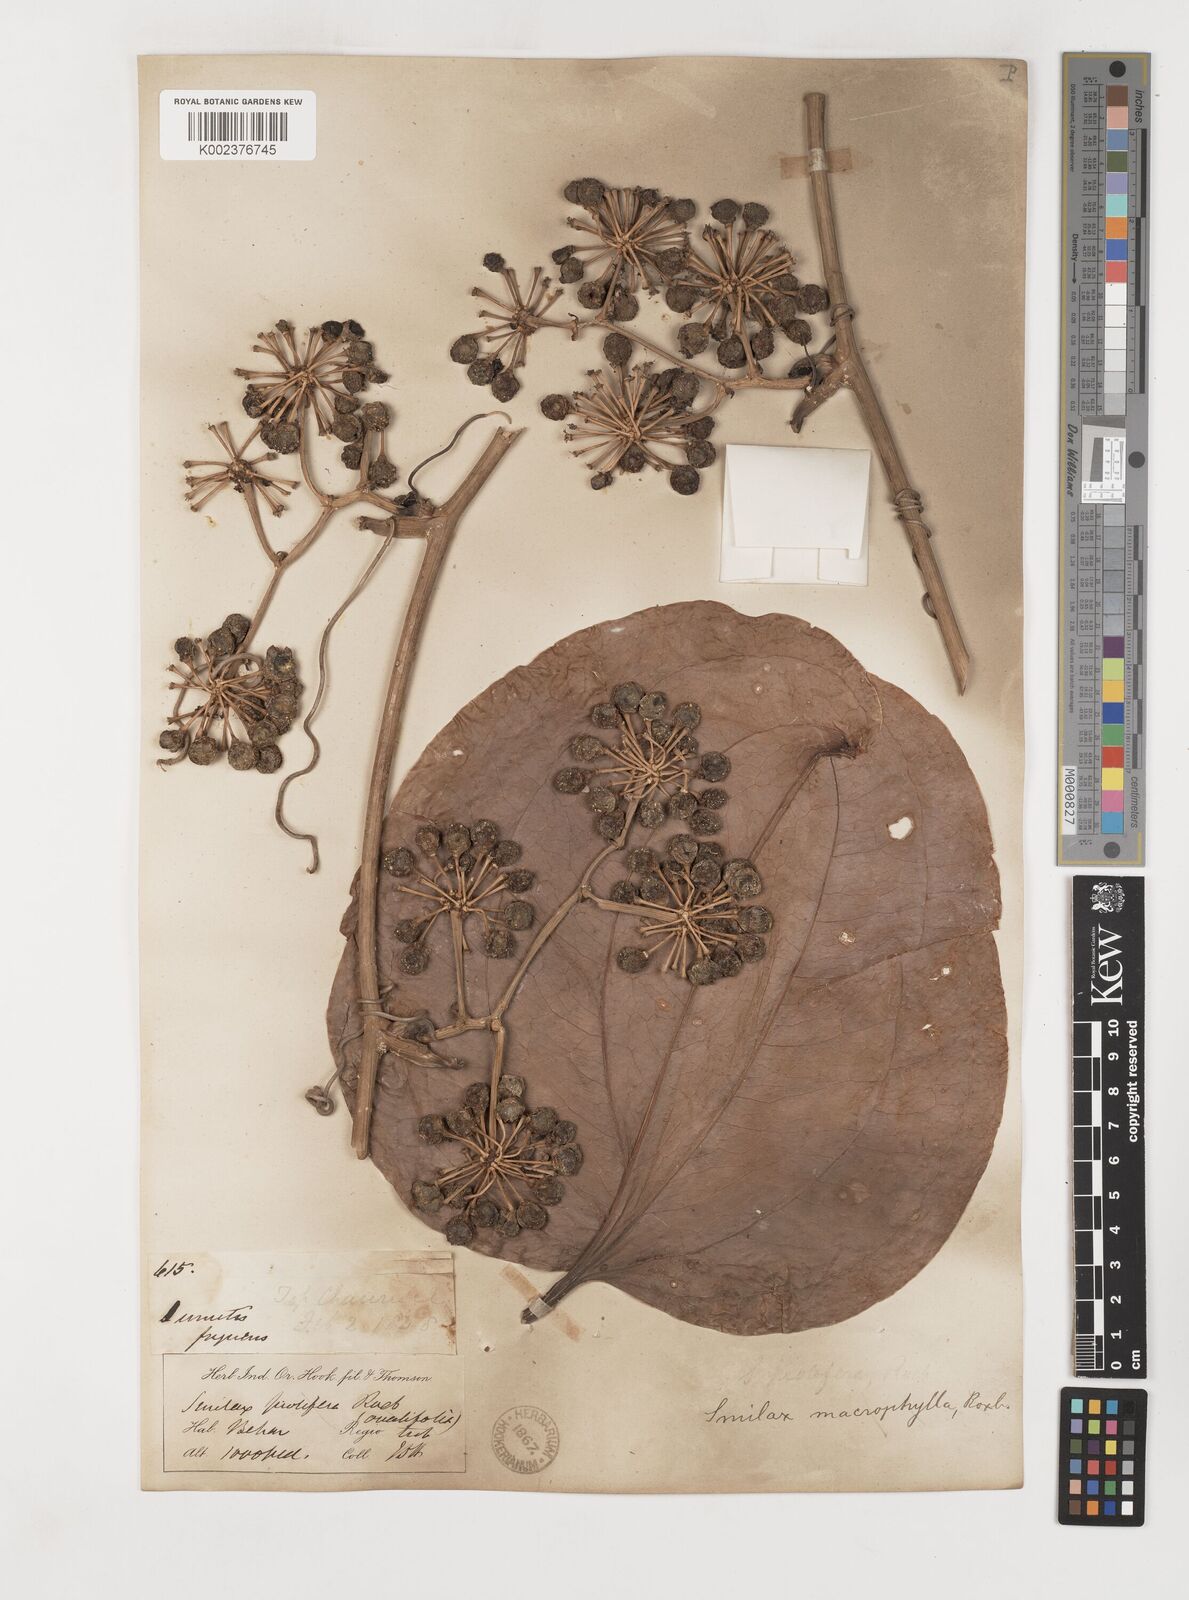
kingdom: Plantae
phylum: Tracheophyta
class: Liliopsida
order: Liliales
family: Smilacaceae
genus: Smilax
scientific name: Smilax ovalifolia
